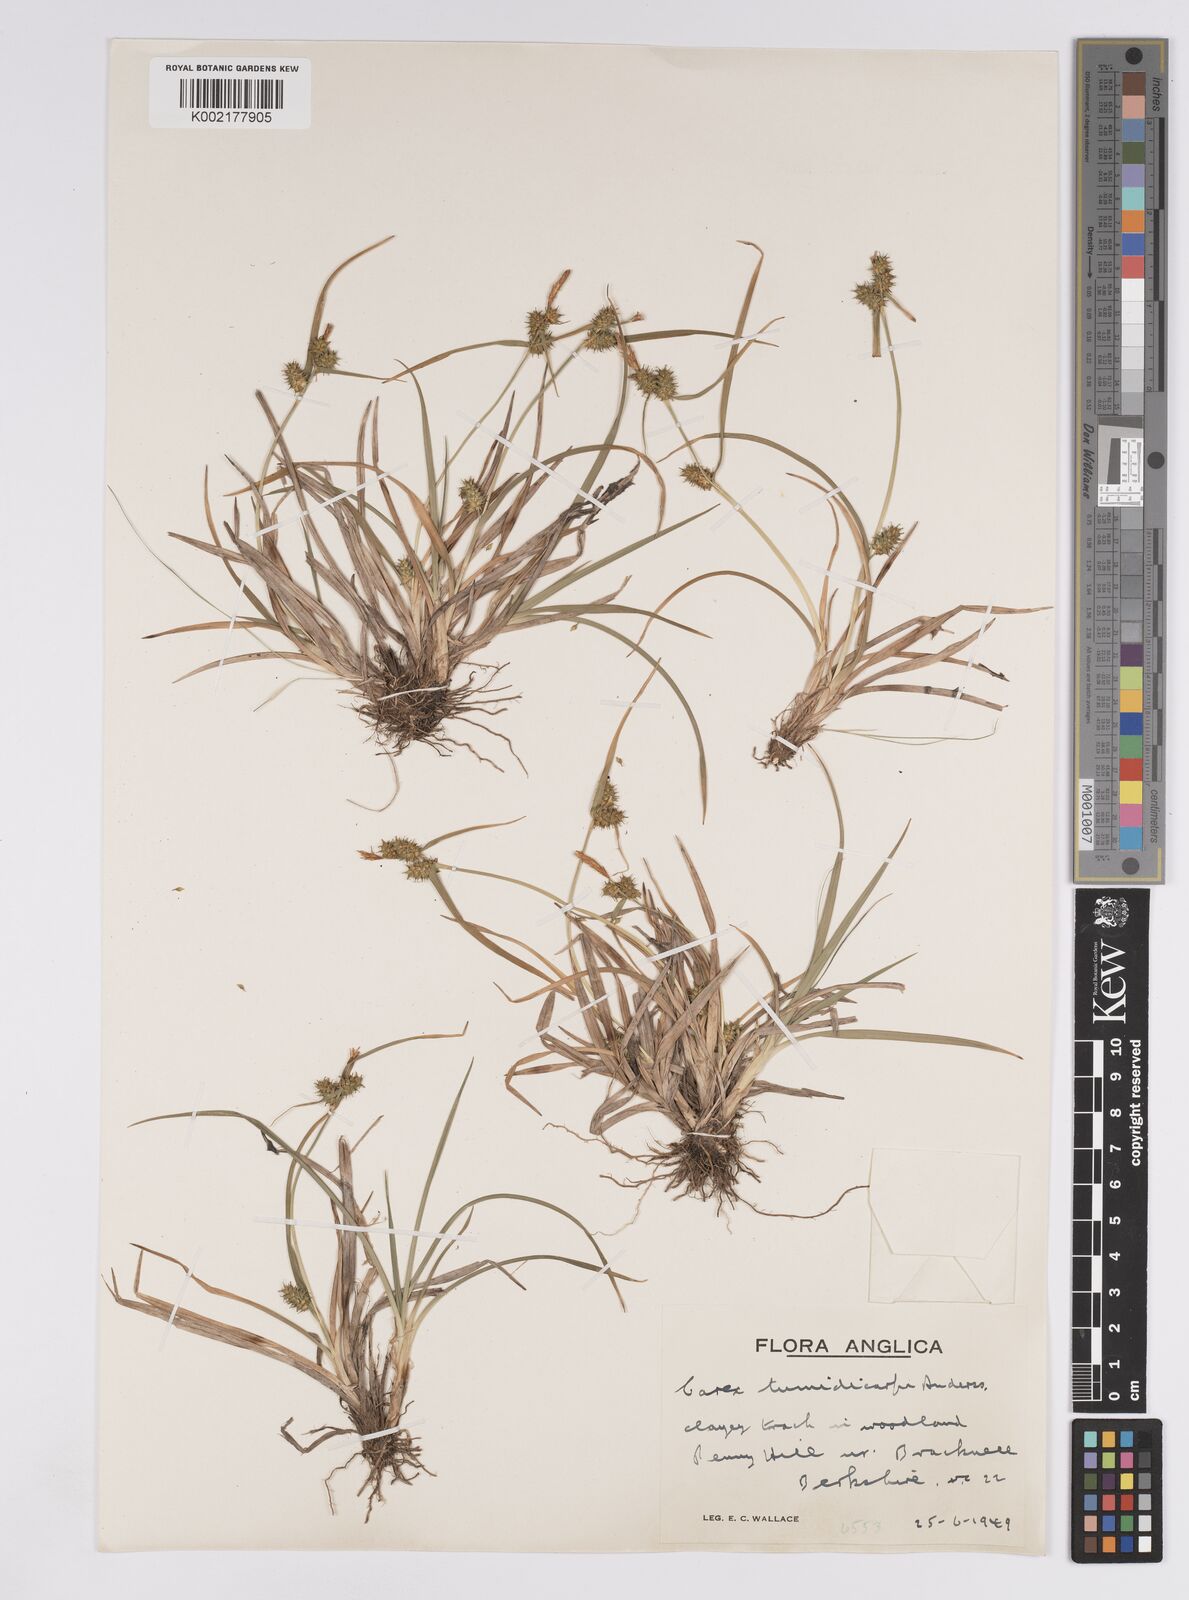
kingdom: Plantae
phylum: Tracheophyta
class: Liliopsida
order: Poales
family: Cyperaceae
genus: Carex
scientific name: Carex demissa
